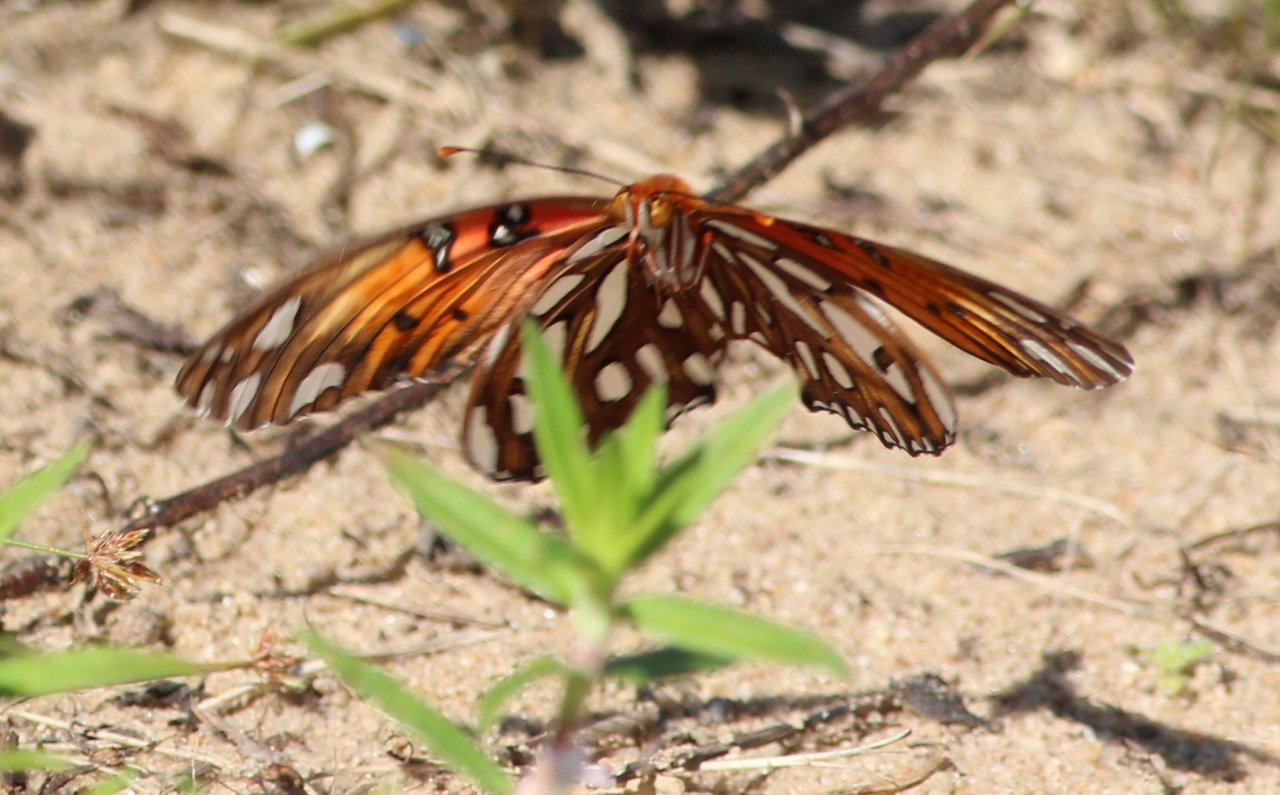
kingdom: Animalia
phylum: Arthropoda
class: Insecta
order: Lepidoptera
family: Nymphalidae
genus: Dione
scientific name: Dione vanillae
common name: Gulf Fritillary
